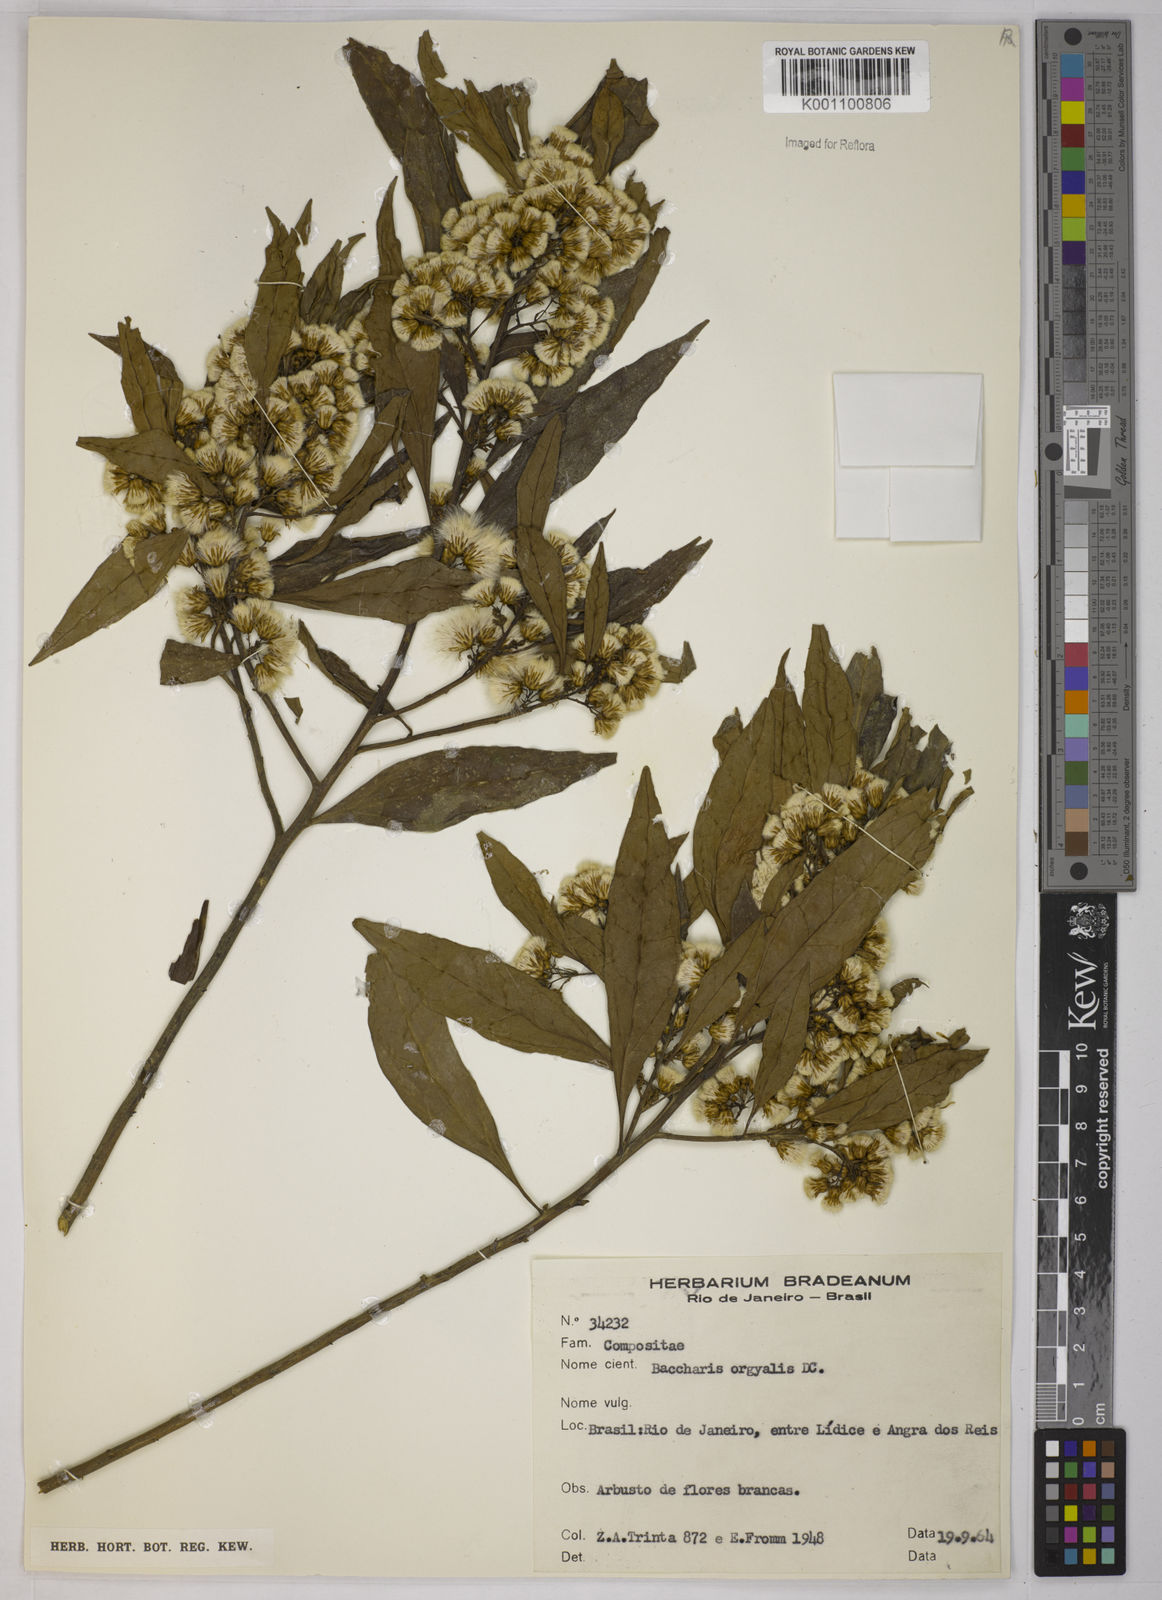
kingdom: Plantae
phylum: Tracheophyta
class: Magnoliopsida
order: Asterales
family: Asteraceae
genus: Baccharis
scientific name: Baccharis dentata
